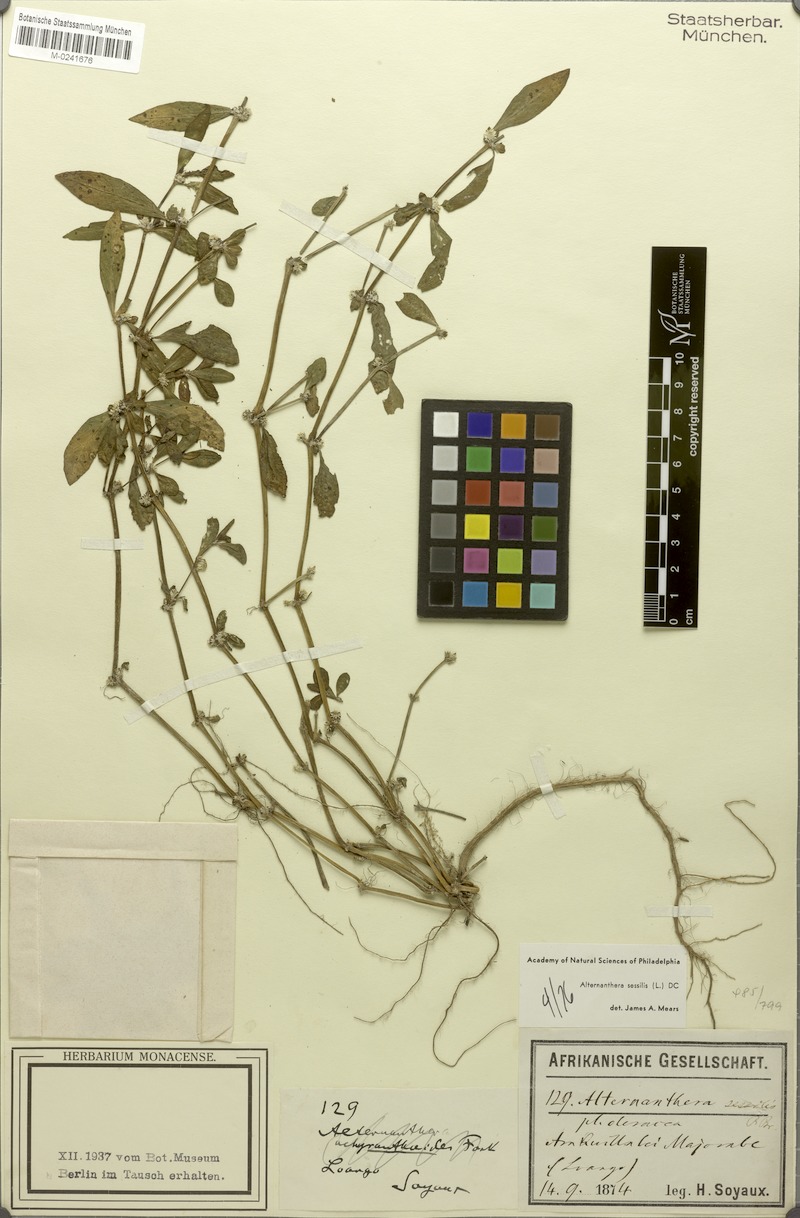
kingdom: Plantae
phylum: Tracheophyta
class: Magnoliopsida
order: Caryophyllales
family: Amaranthaceae
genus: Alternanthera
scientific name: Alternanthera sessilis
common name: Sessile joyweed
